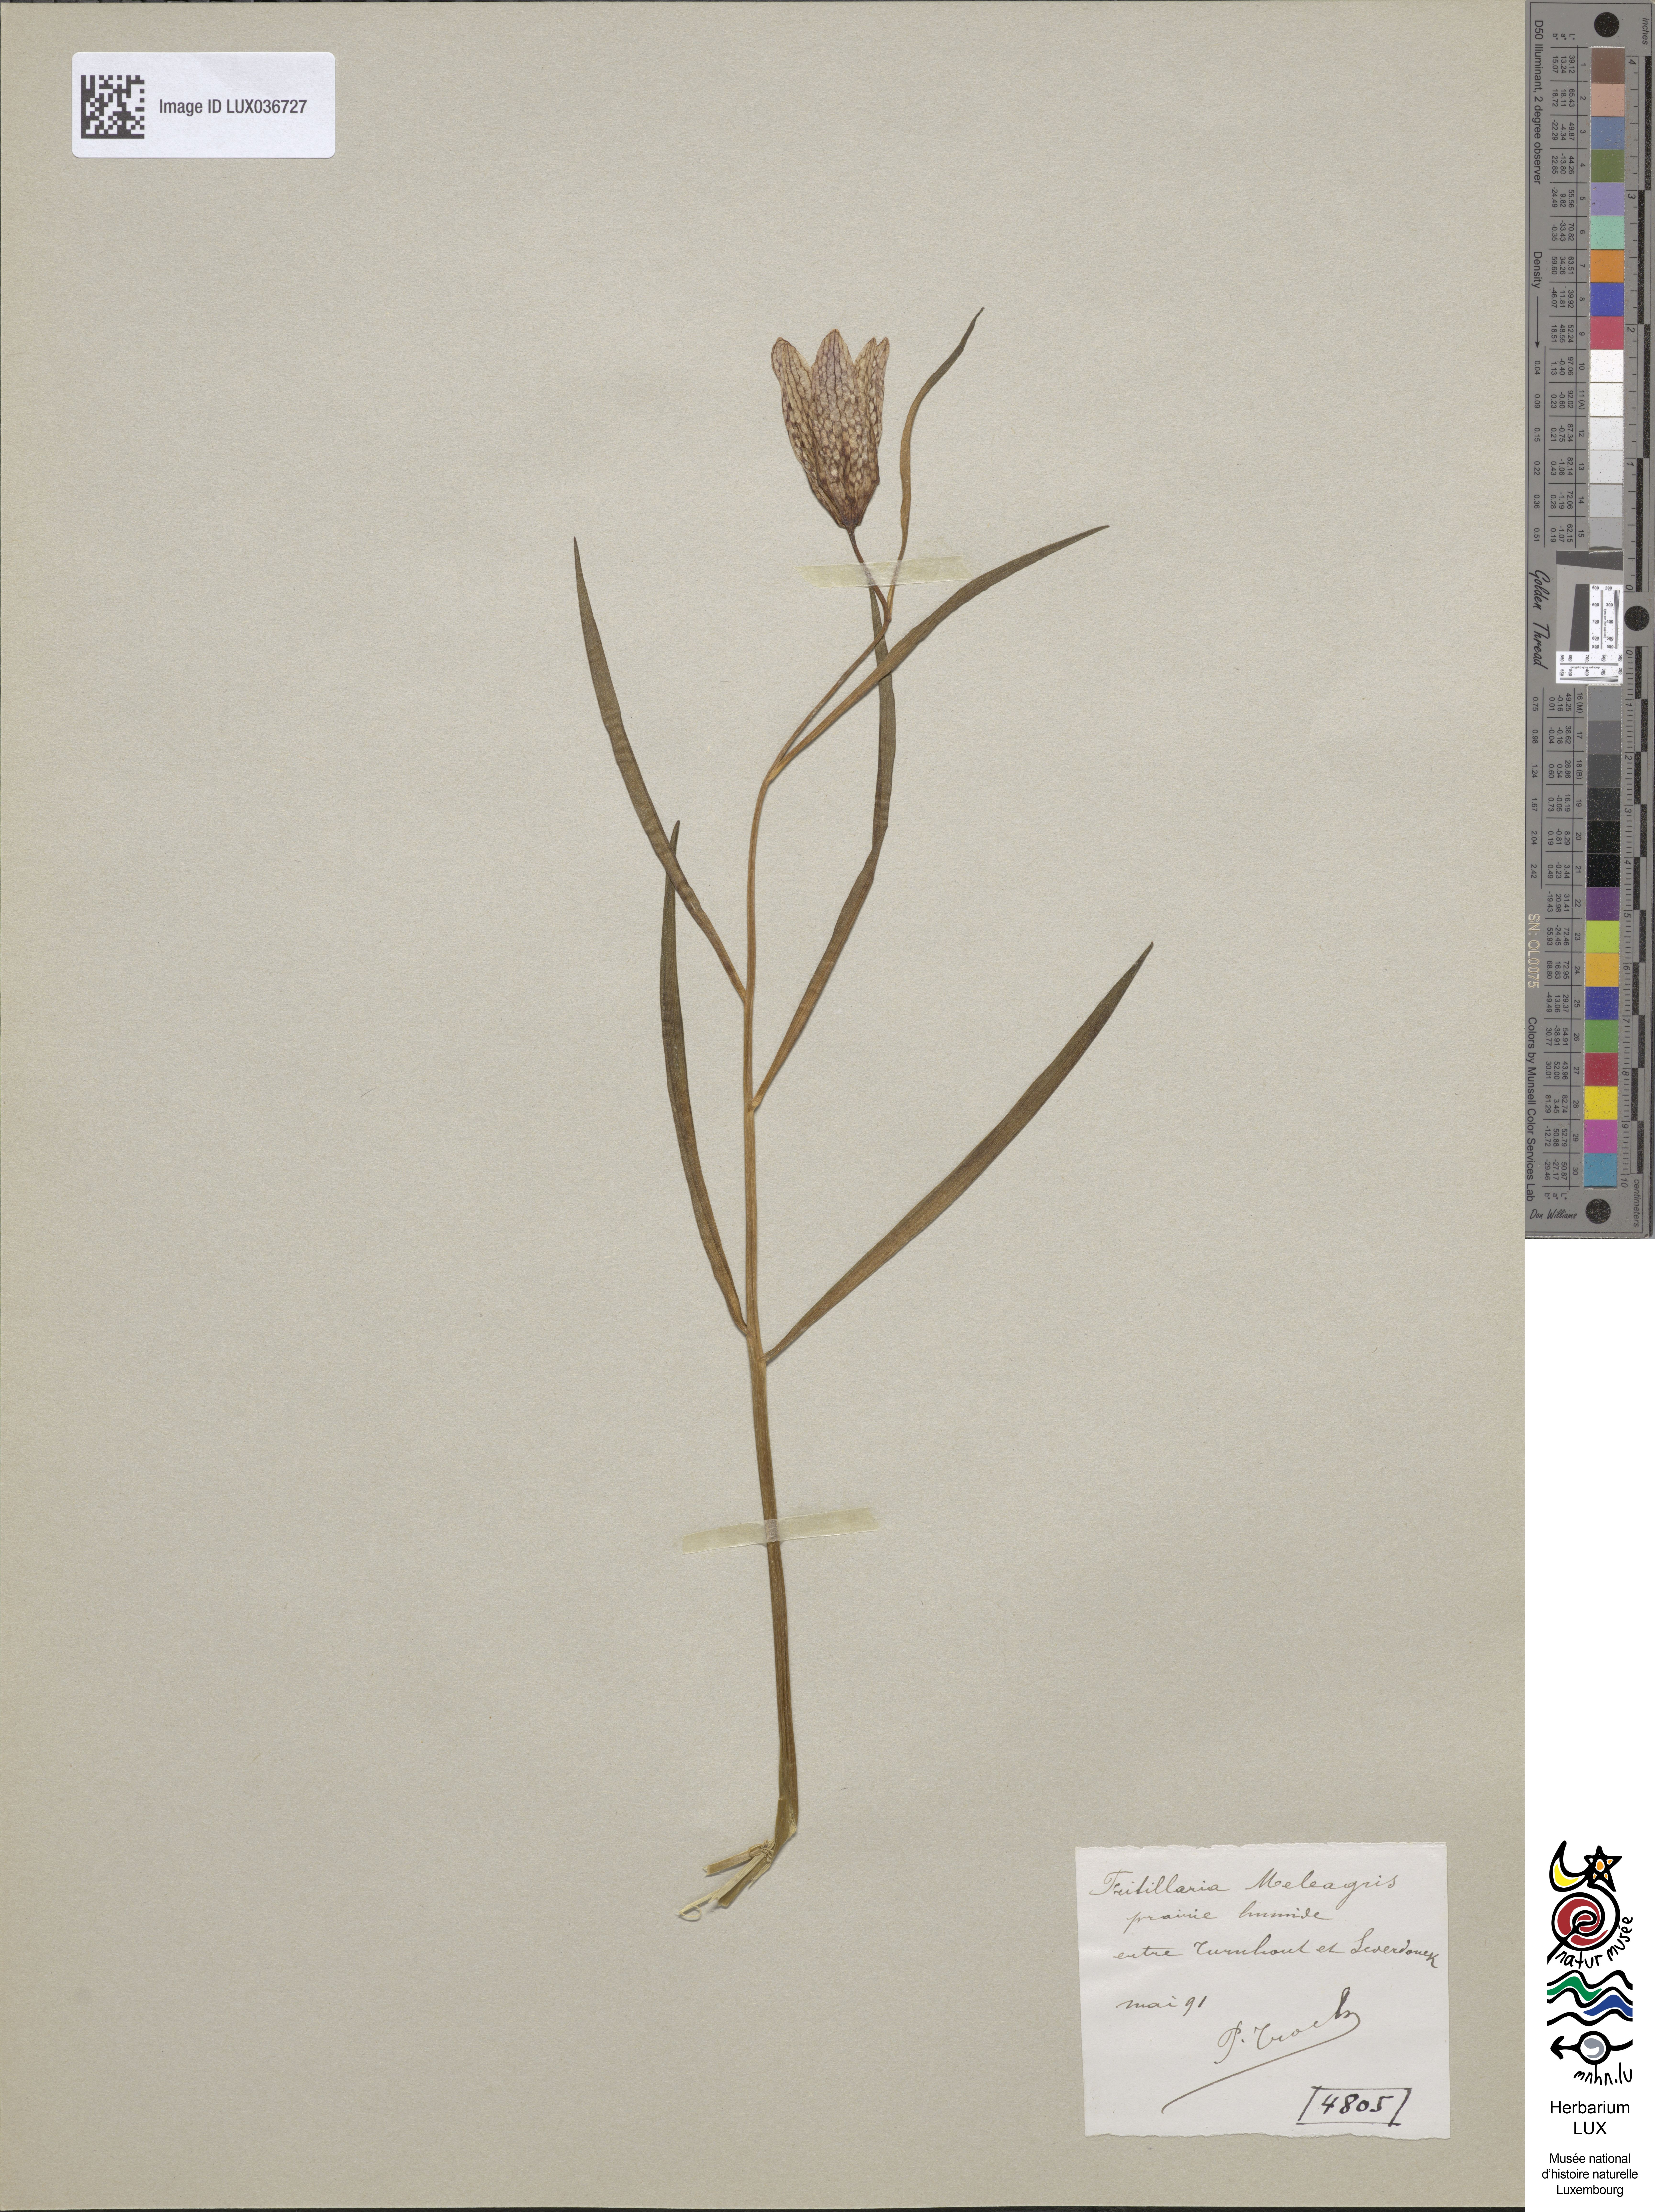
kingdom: Plantae
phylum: Tracheophyta
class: Liliopsida
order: Liliales
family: Liliaceae
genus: Fritillaria
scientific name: Fritillaria meleagris
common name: Fritillary
